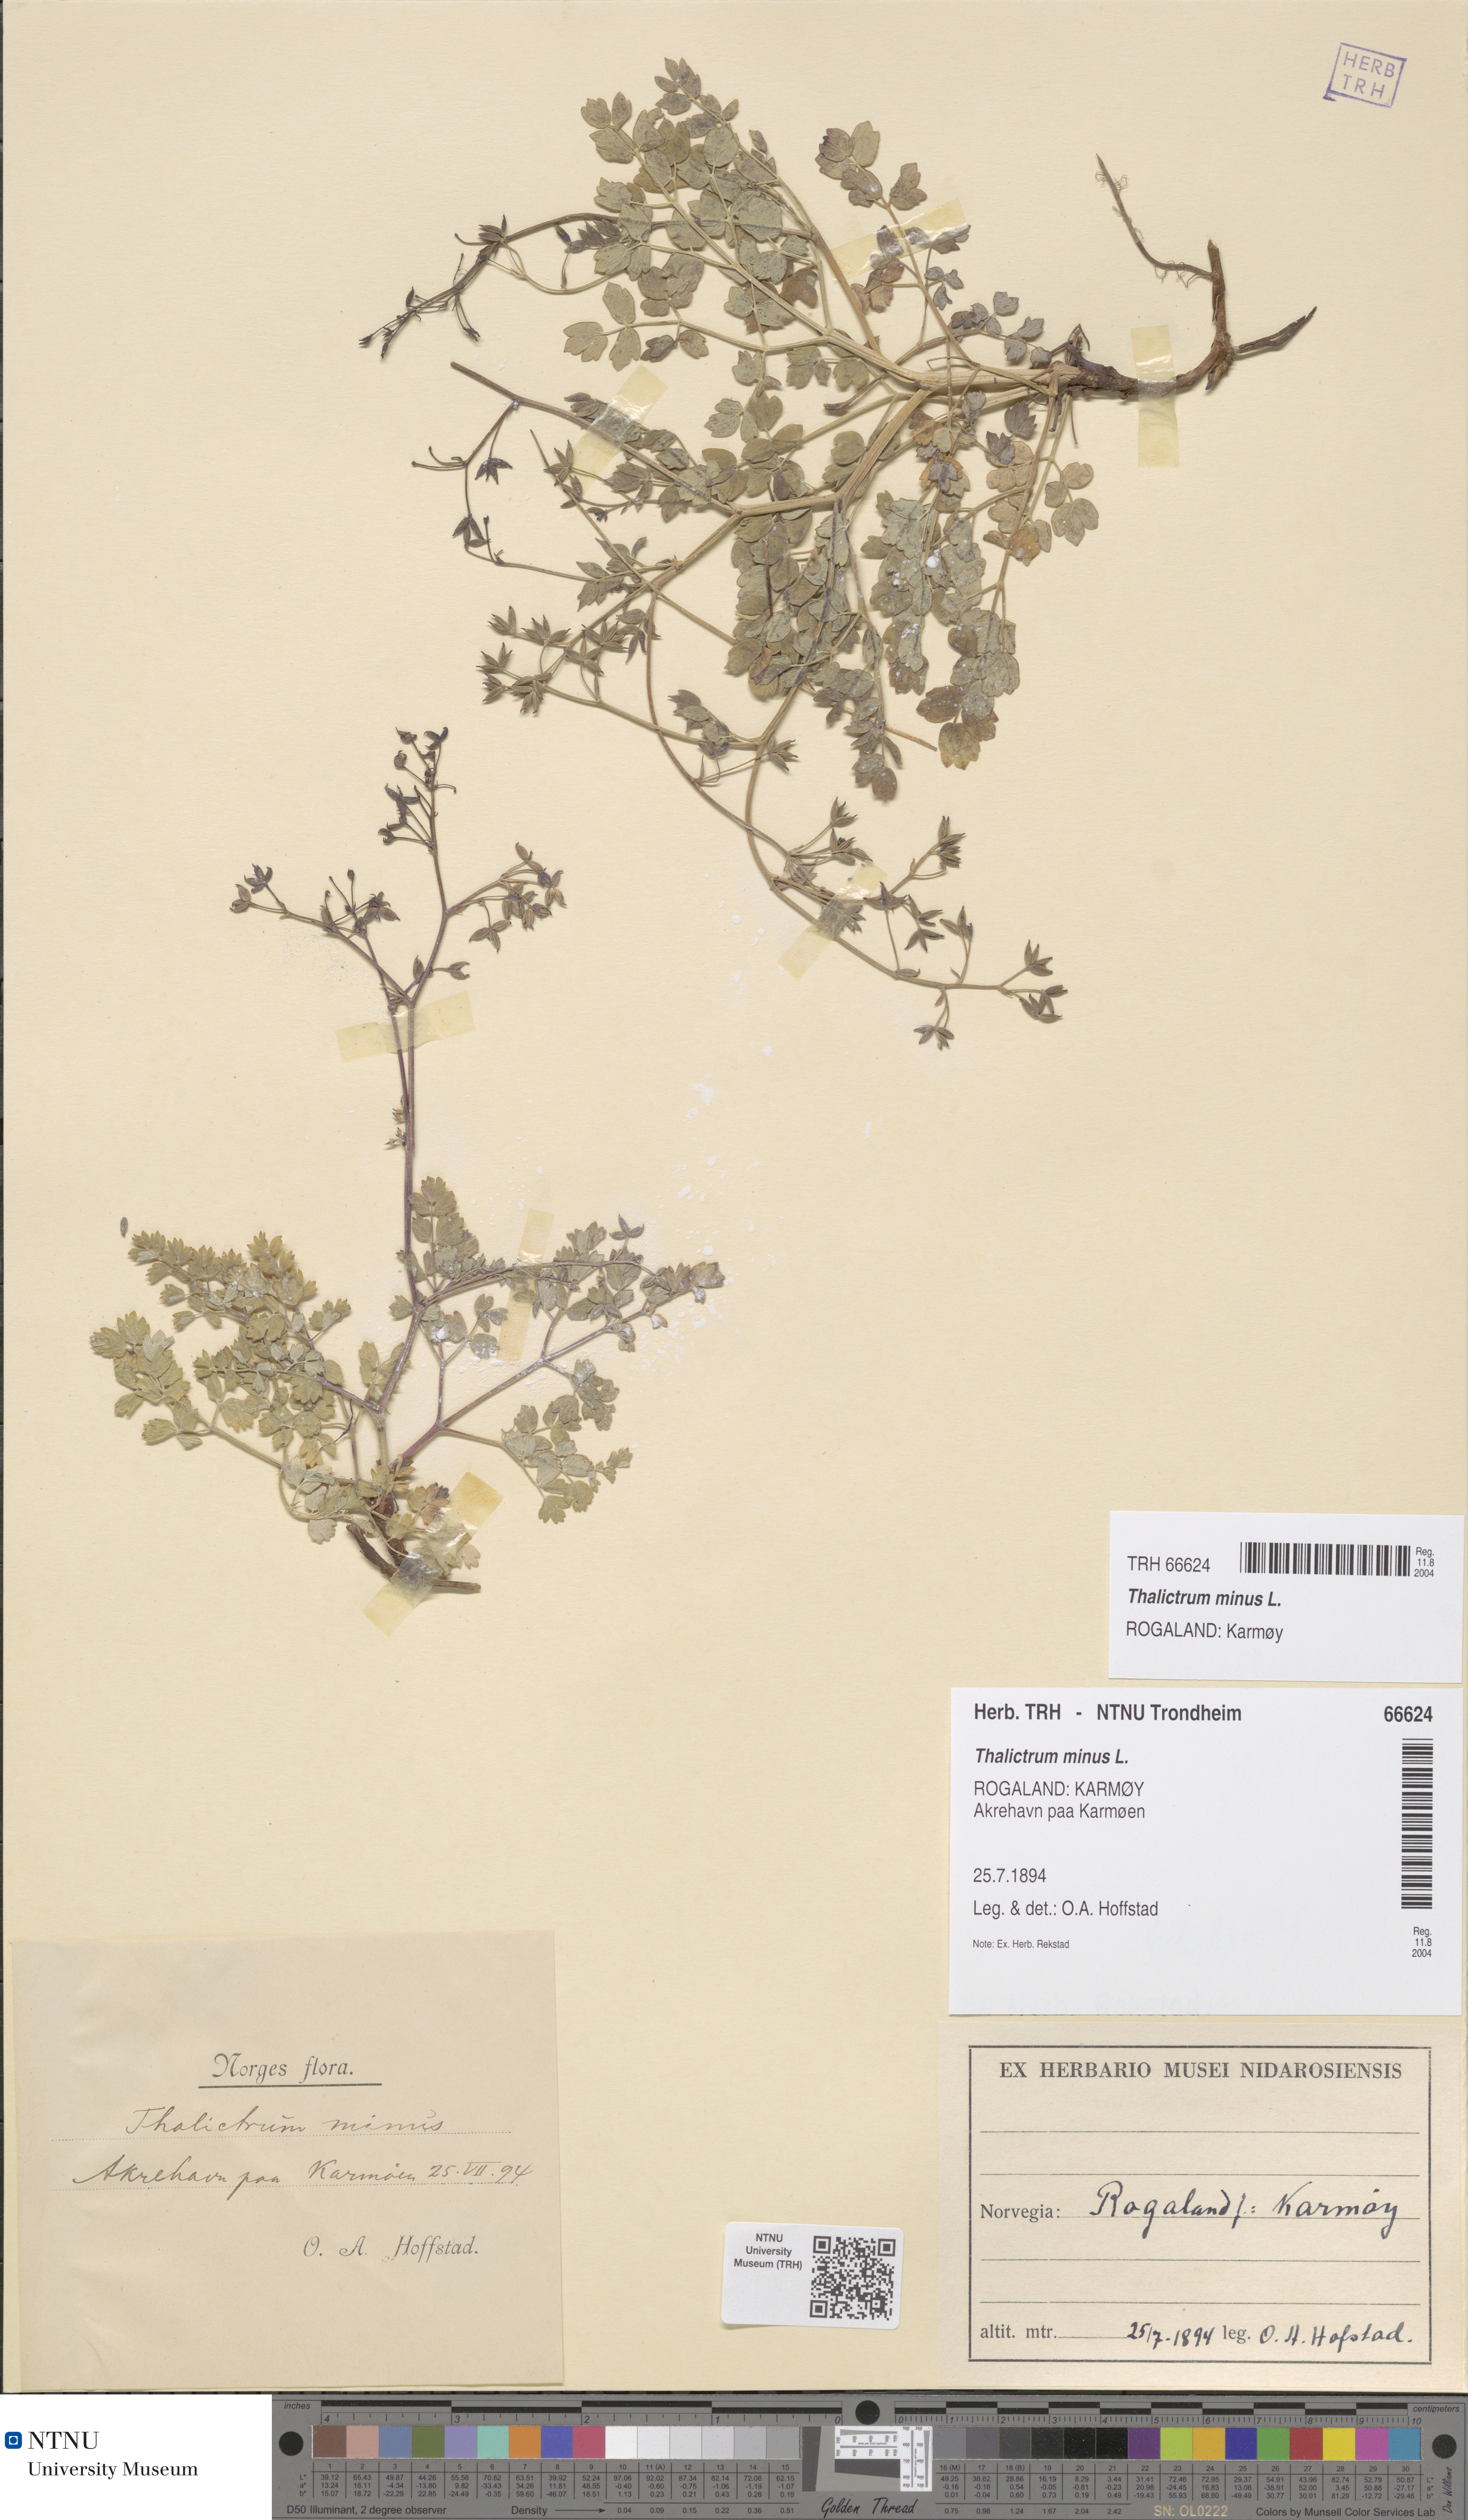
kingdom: Plantae
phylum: Tracheophyta
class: Magnoliopsida
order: Ranunculales
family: Ranunculaceae
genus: Thalictrum
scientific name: Thalictrum minus
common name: Lesser meadow-rue
